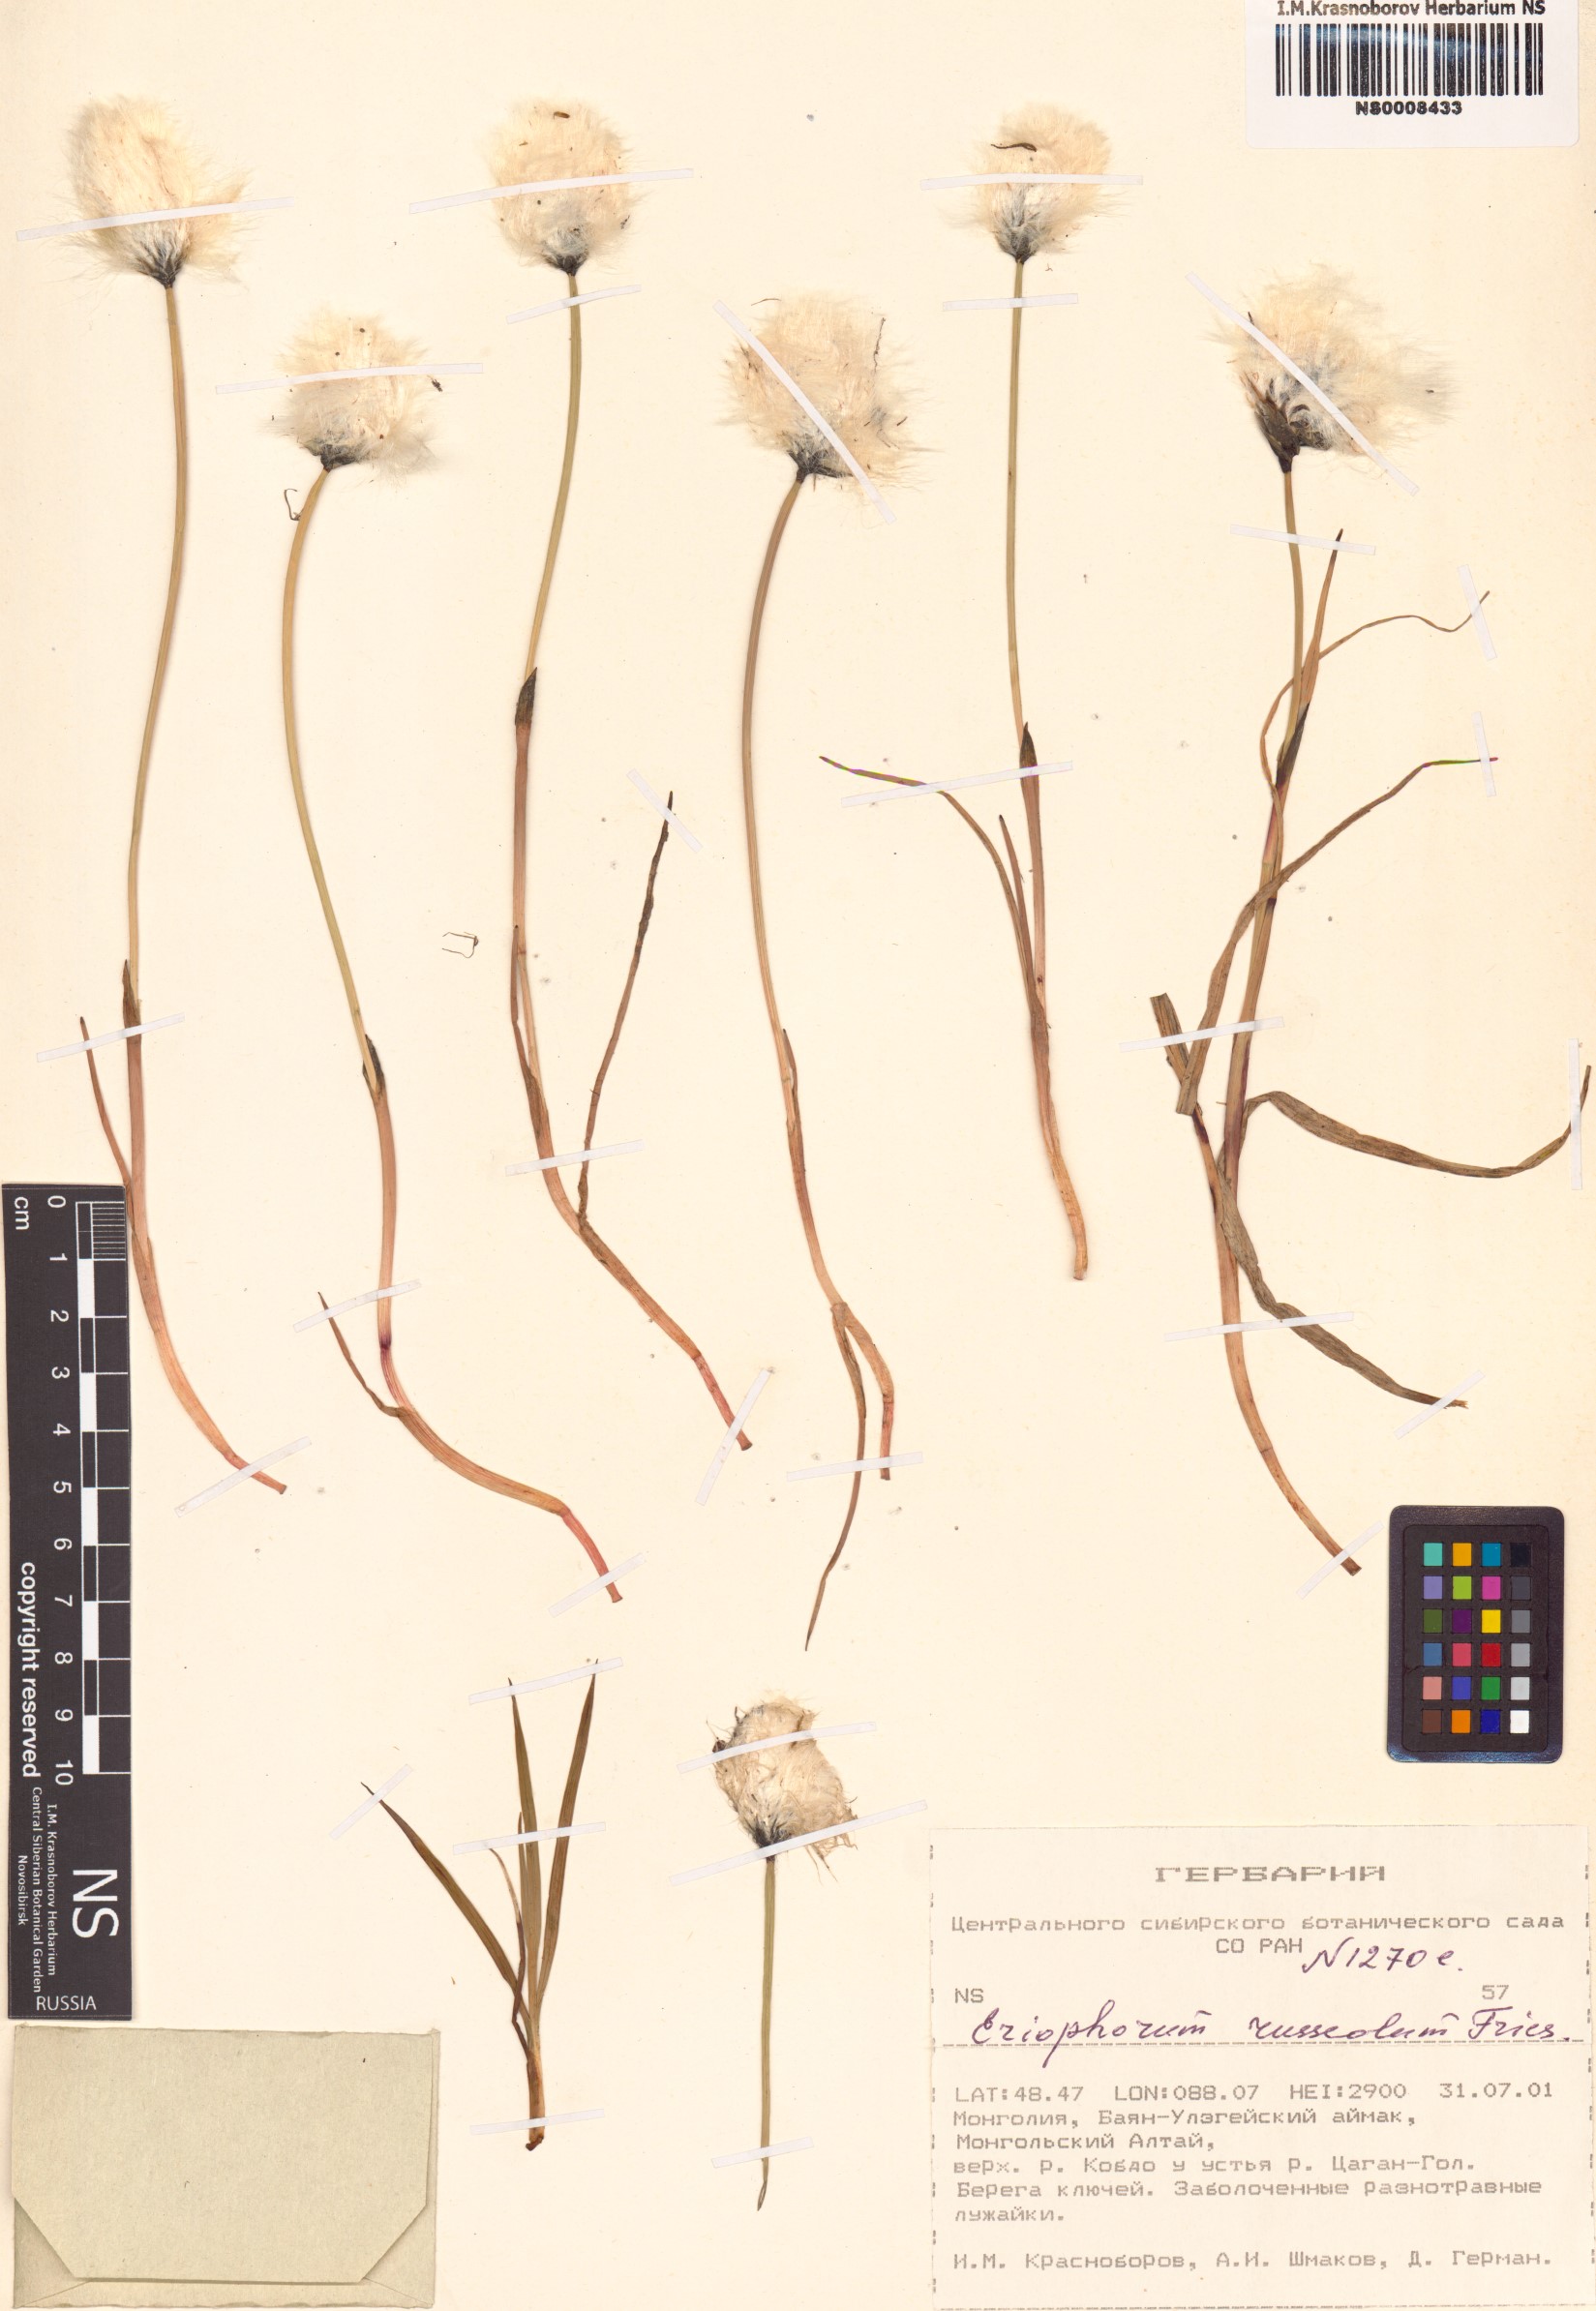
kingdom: Plantae
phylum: Tracheophyta
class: Liliopsida
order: Poales
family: Cyperaceae
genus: Eriophorum
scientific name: Eriophorum chamissonis
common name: Chamisso's cottongrass
